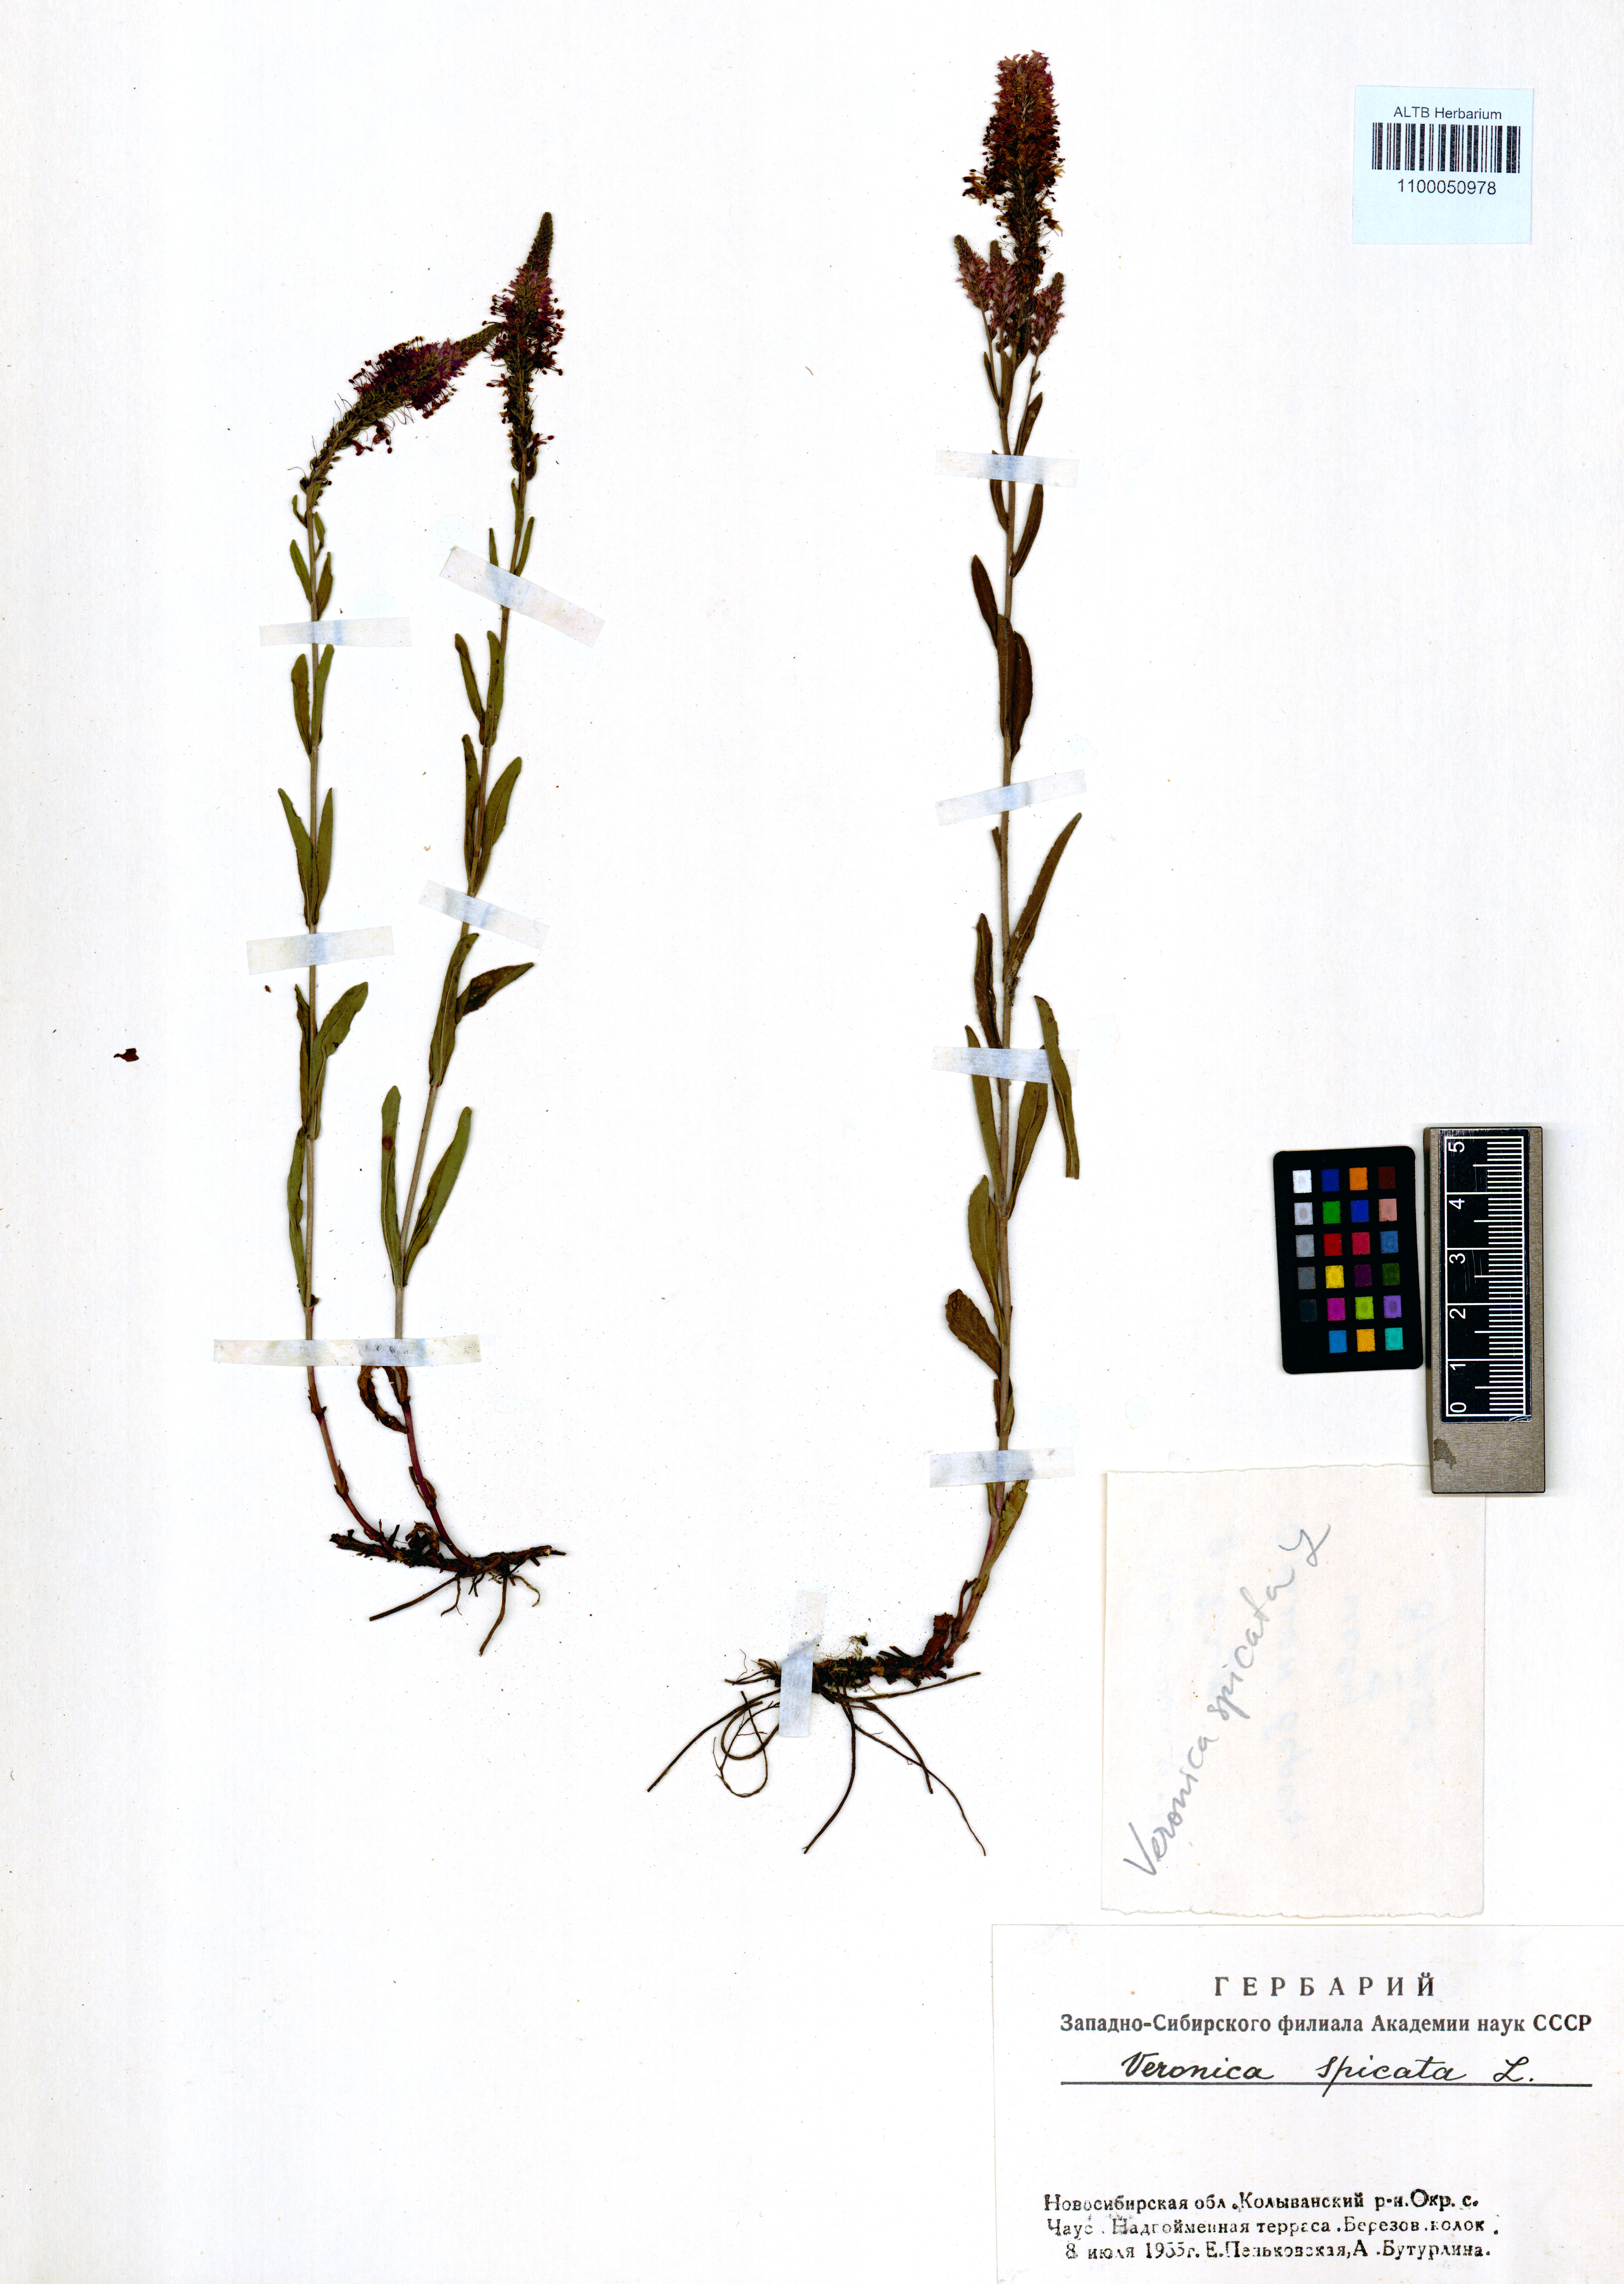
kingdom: Plantae
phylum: Tracheophyta
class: Magnoliopsida
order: Lamiales
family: Plantaginaceae
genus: Veronica
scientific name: Veronica spicata
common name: Spiked speedwell
